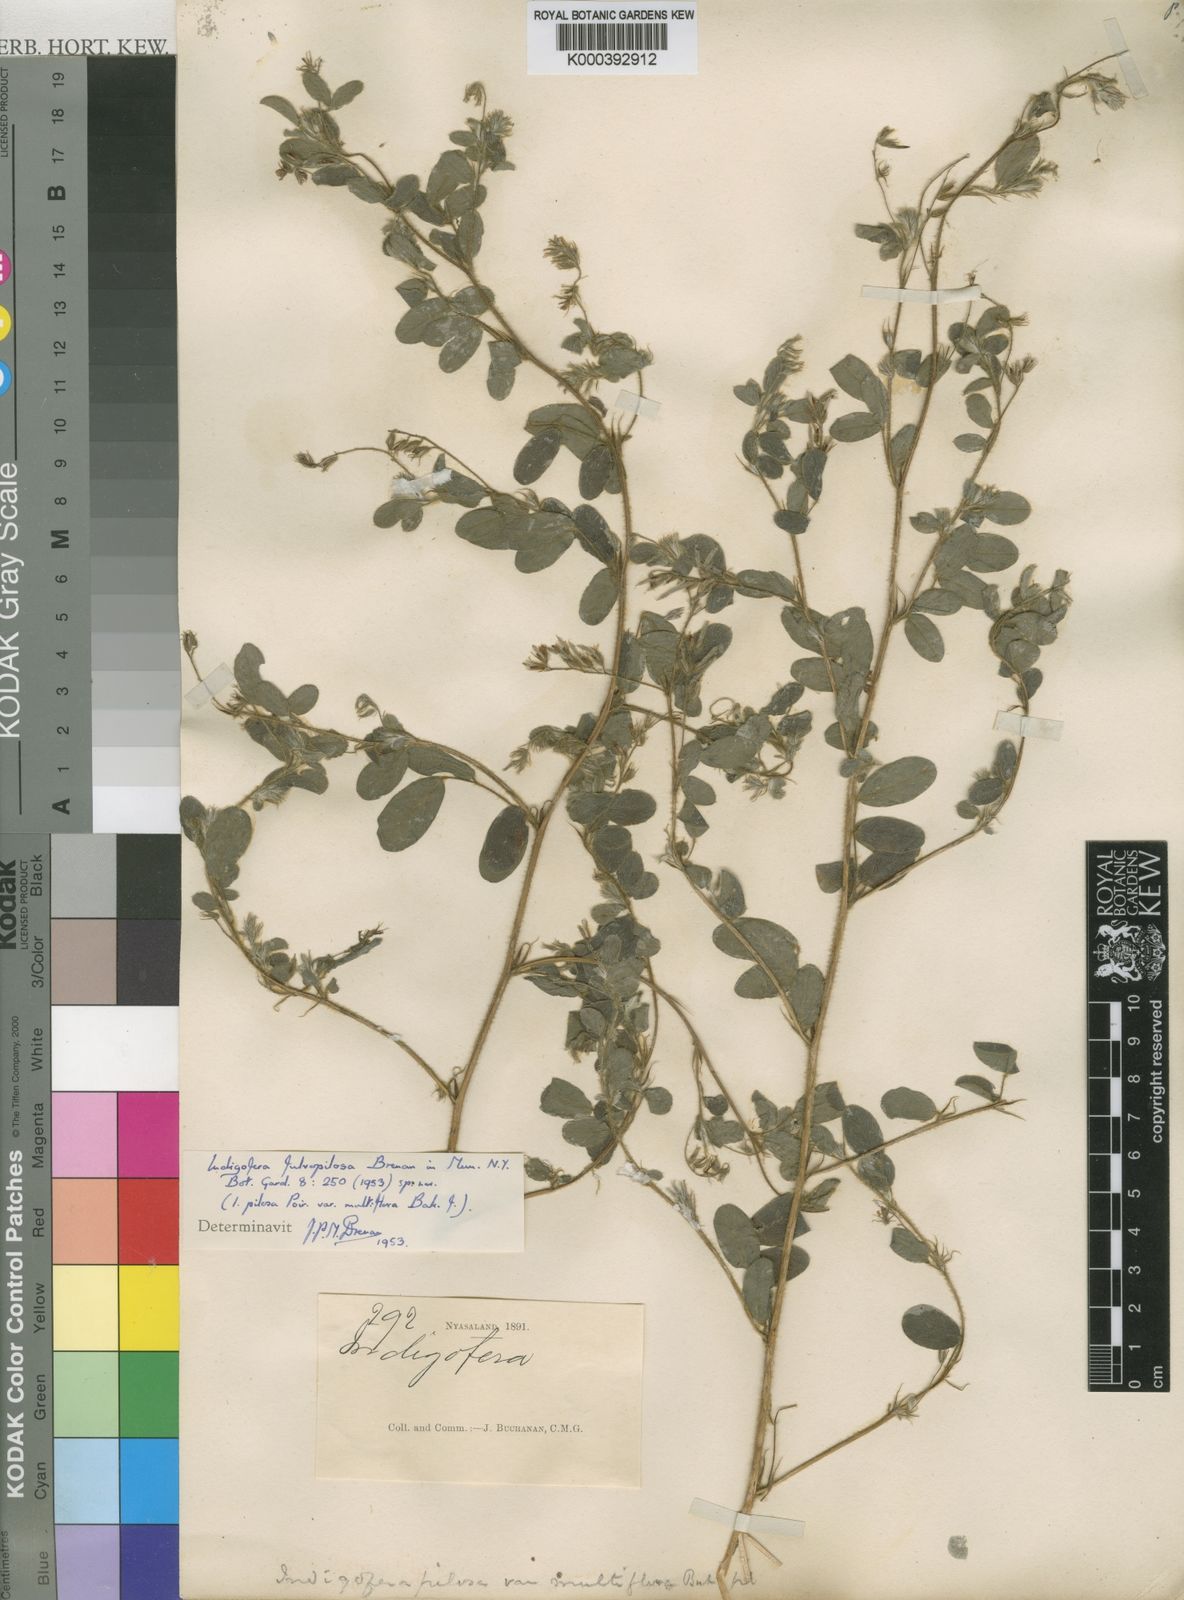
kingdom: Plantae
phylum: Tracheophyta
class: Magnoliopsida
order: Fabales
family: Fabaceae
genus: Indigofera
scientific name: Indigofera pilosa
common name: Softhairy indigo
